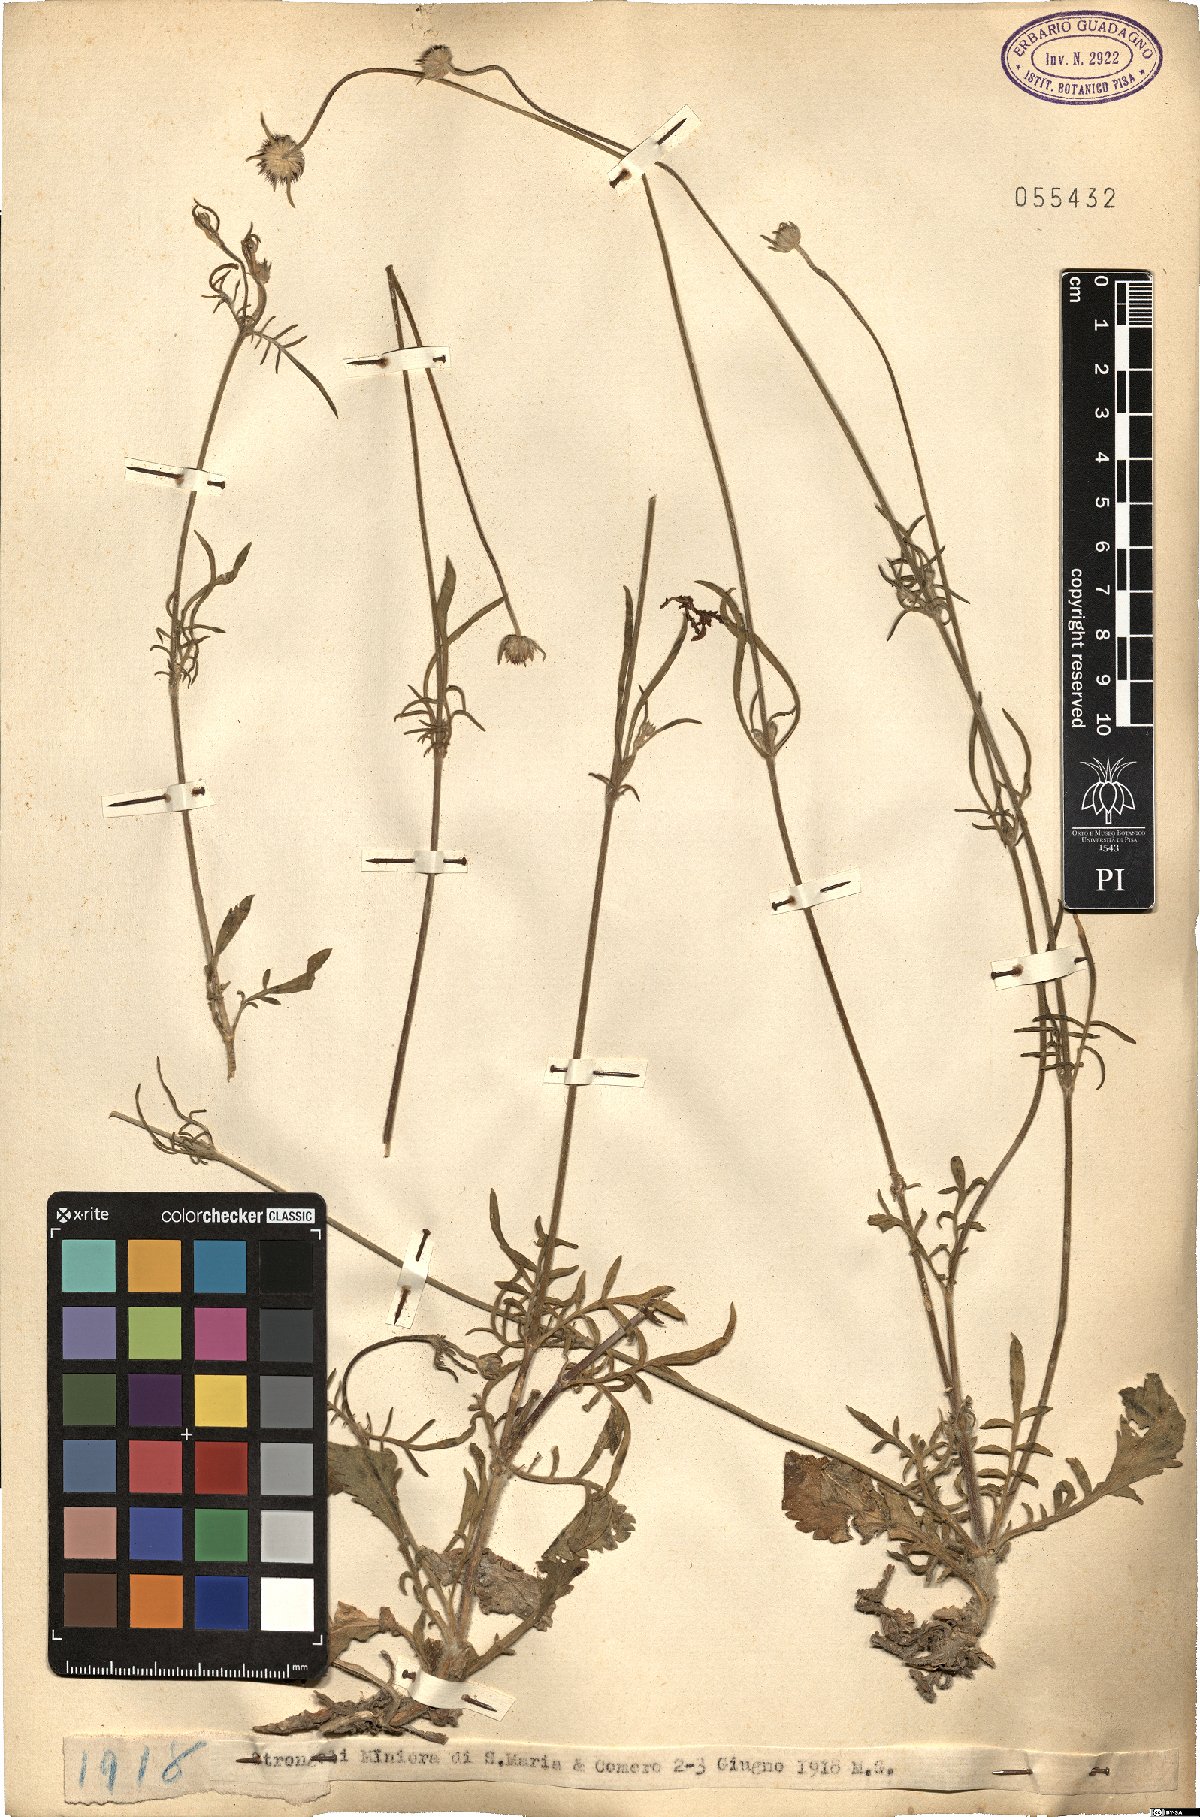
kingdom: Plantae
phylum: Tracheophyta
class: Magnoliopsida
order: Dipsacales
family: Caprifoliaceae
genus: Scabiosa
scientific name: Scabiosa
